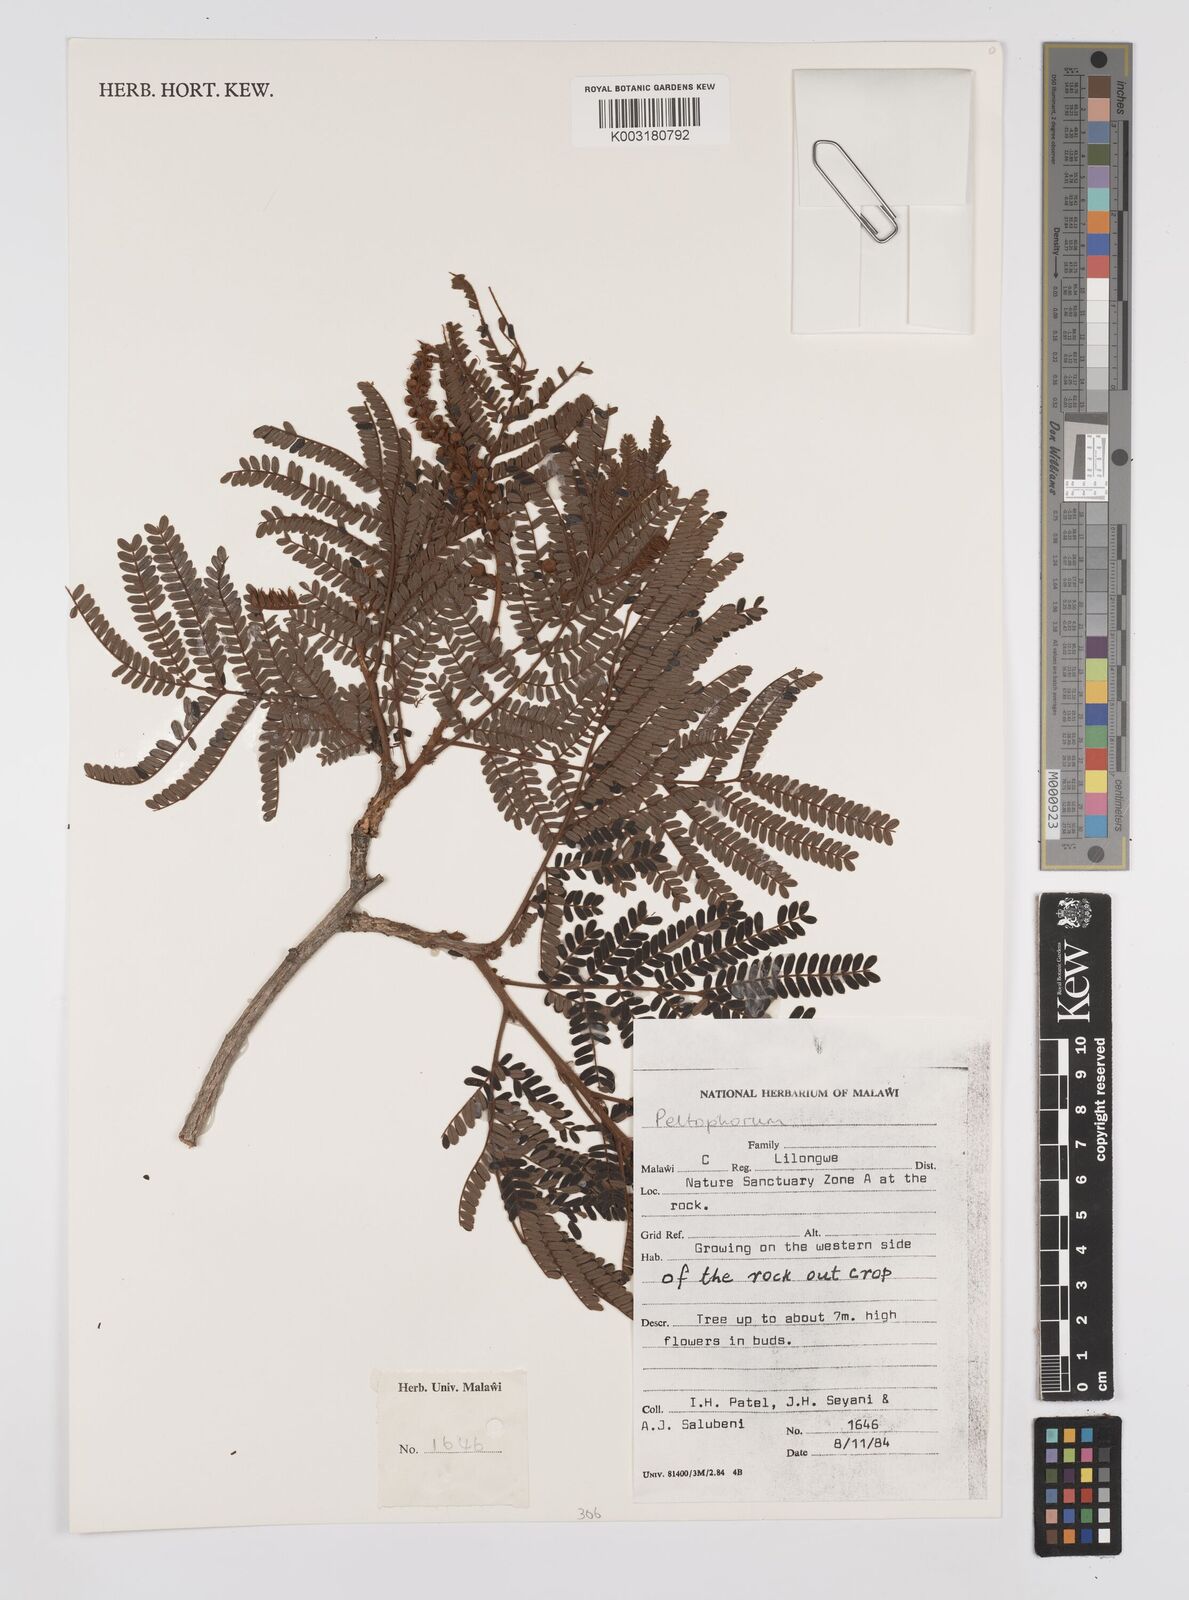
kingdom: Plantae
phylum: Tracheophyta
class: Magnoliopsida
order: Fabales
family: Fabaceae
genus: Peltophorum
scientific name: Peltophorum africanum
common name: African black wattle
